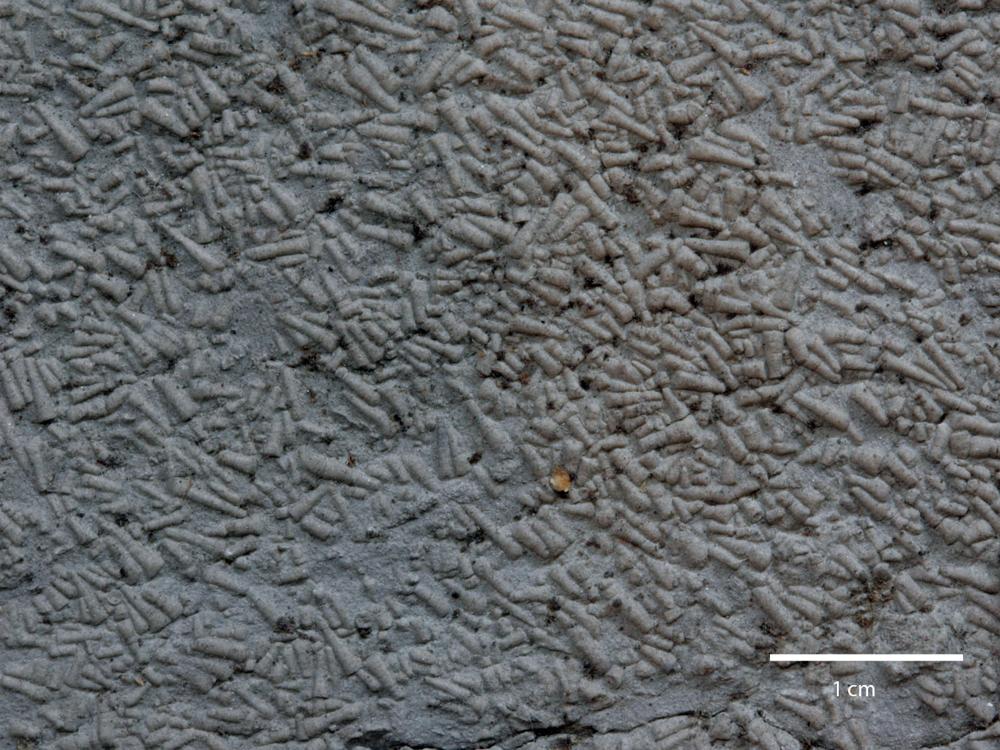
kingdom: Animalia
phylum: Annelida
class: Polychaeta
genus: Volborthella
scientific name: Volborthella tenuis
